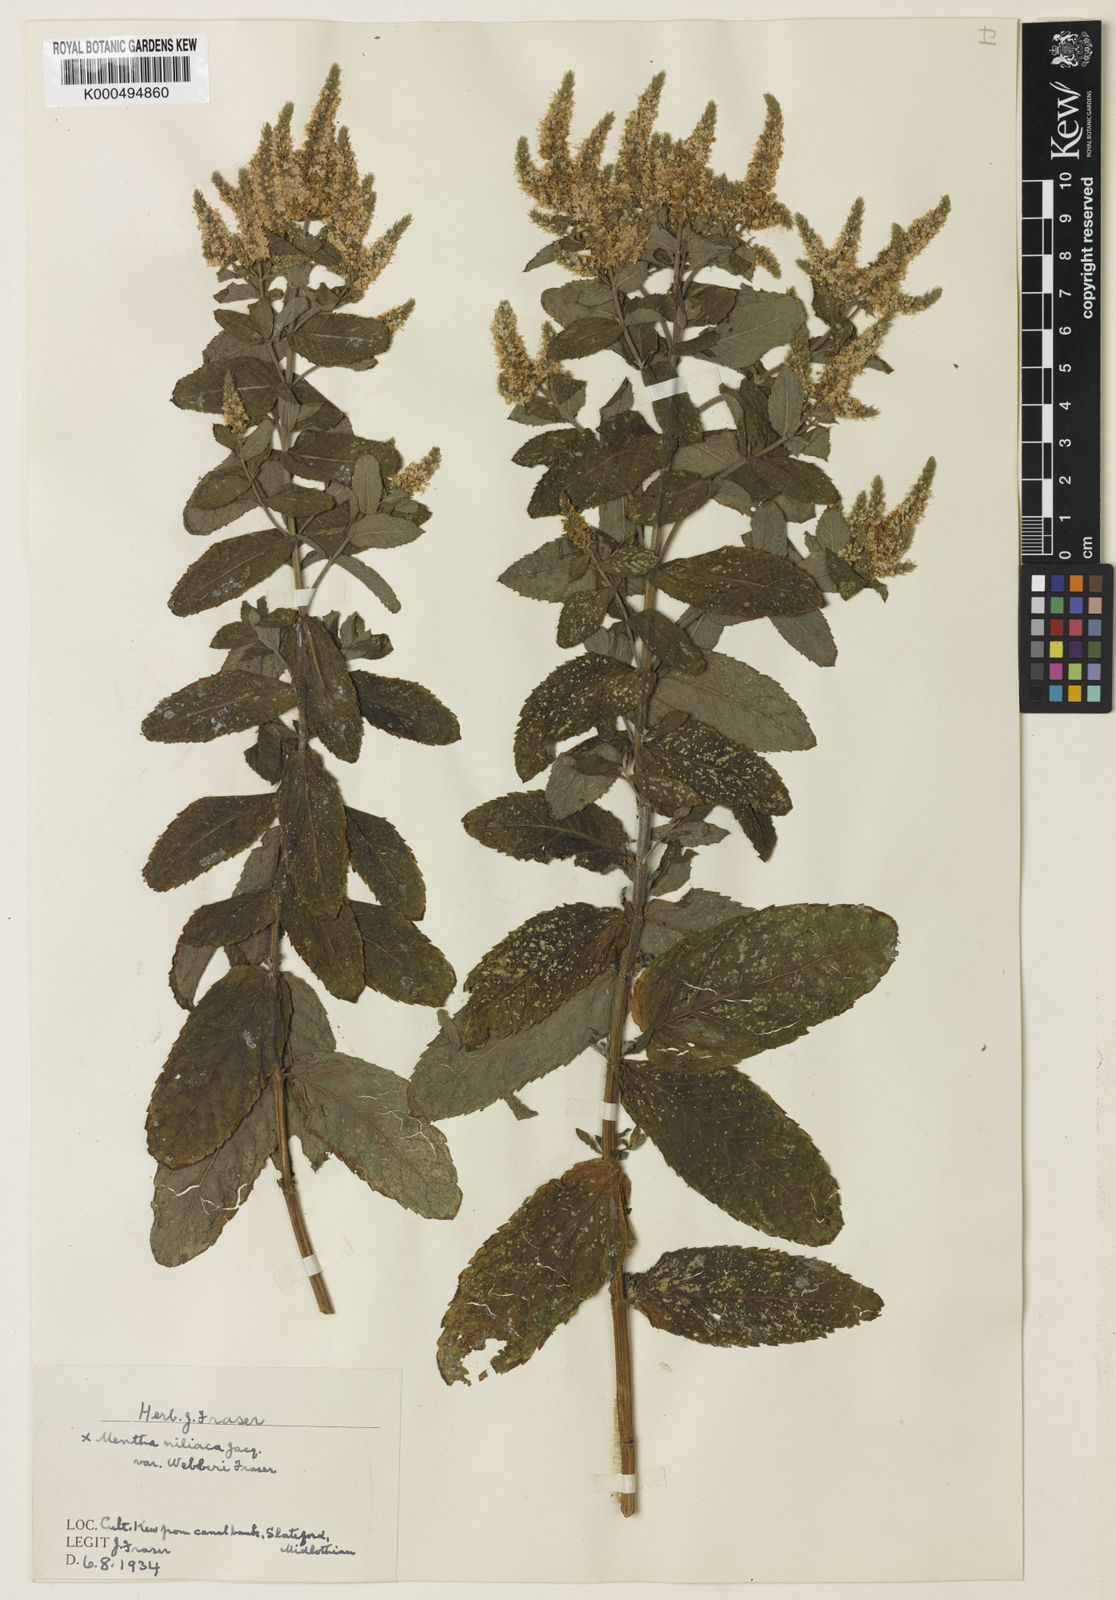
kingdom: Plantae
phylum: Tracheophyta
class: Magnoliopsida
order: Lamiales
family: Lamiaceae
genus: Mentha
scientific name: Mentha villosa
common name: Apple mint
